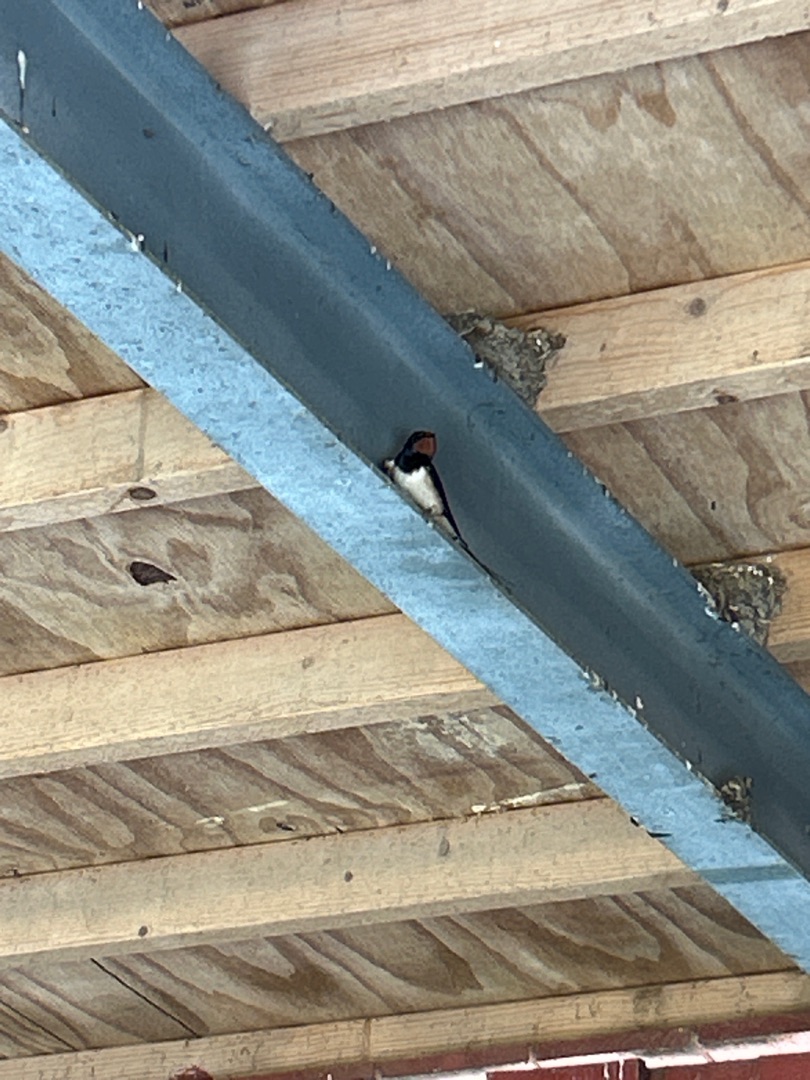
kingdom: Animalia
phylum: Chordata
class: Aves
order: Passeriformes
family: Hirundinidae
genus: Hirundo
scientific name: Hirundo rustica
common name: Landsvale
